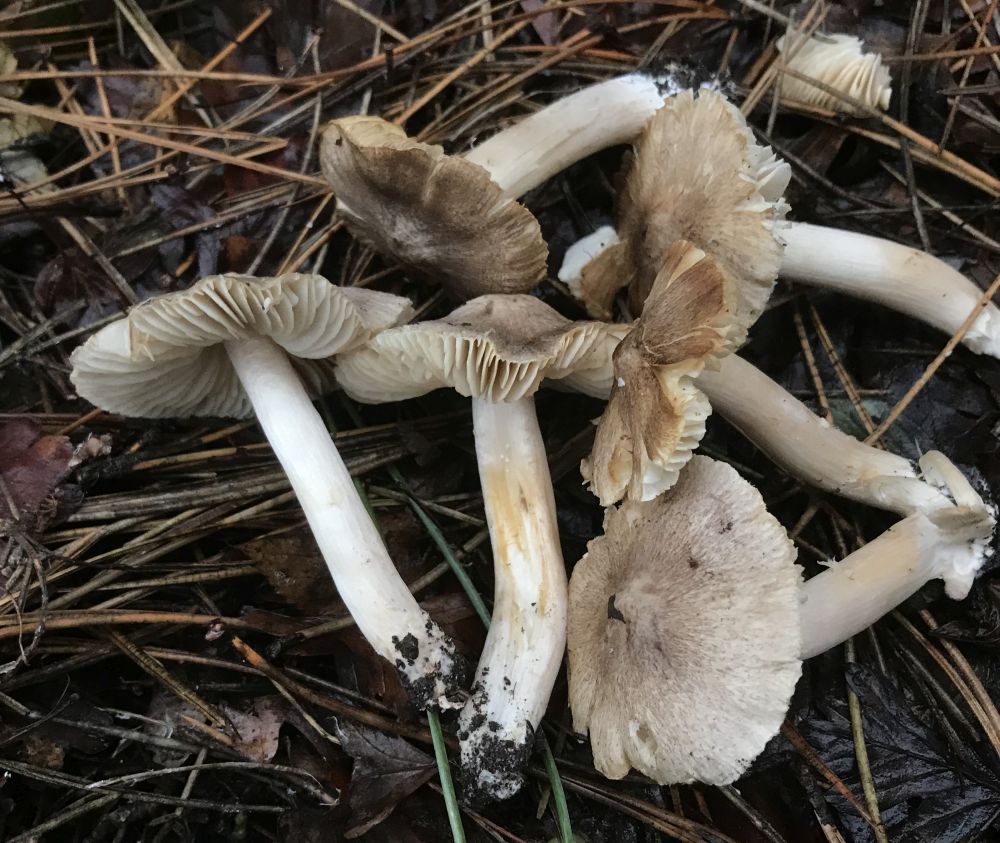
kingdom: Fungi
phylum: Basidiomycota
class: Agaricomycetes
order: Agaricales
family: Tricholomataceae
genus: Tricholoma
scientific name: Tricholoma terreum
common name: jordfarvet ridderhat
